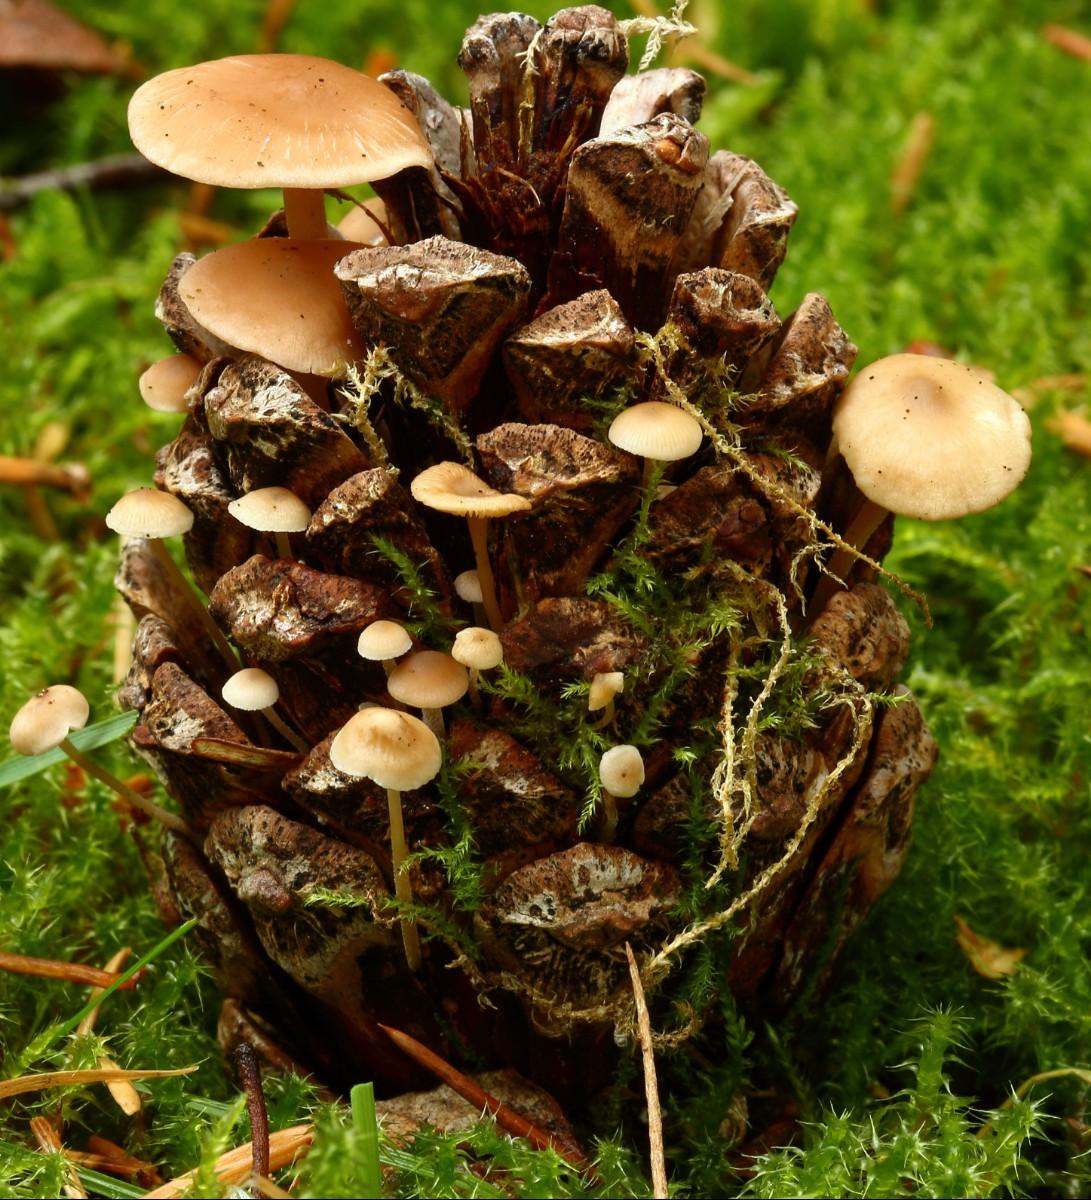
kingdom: Fungi
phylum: Basidiomycota
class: Agaricomycetes
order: Agaricales
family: Marasmiaceae
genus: Baeospora
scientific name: Baeospora myosura
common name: koglebruskhat
